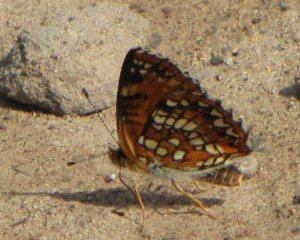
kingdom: Animalia
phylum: Arthropoda
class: Insecta
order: Lepidoptera
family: Nymphalidae
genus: Chlosyne
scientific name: Chlosyne harrisii
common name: Harris's Checkerspot
